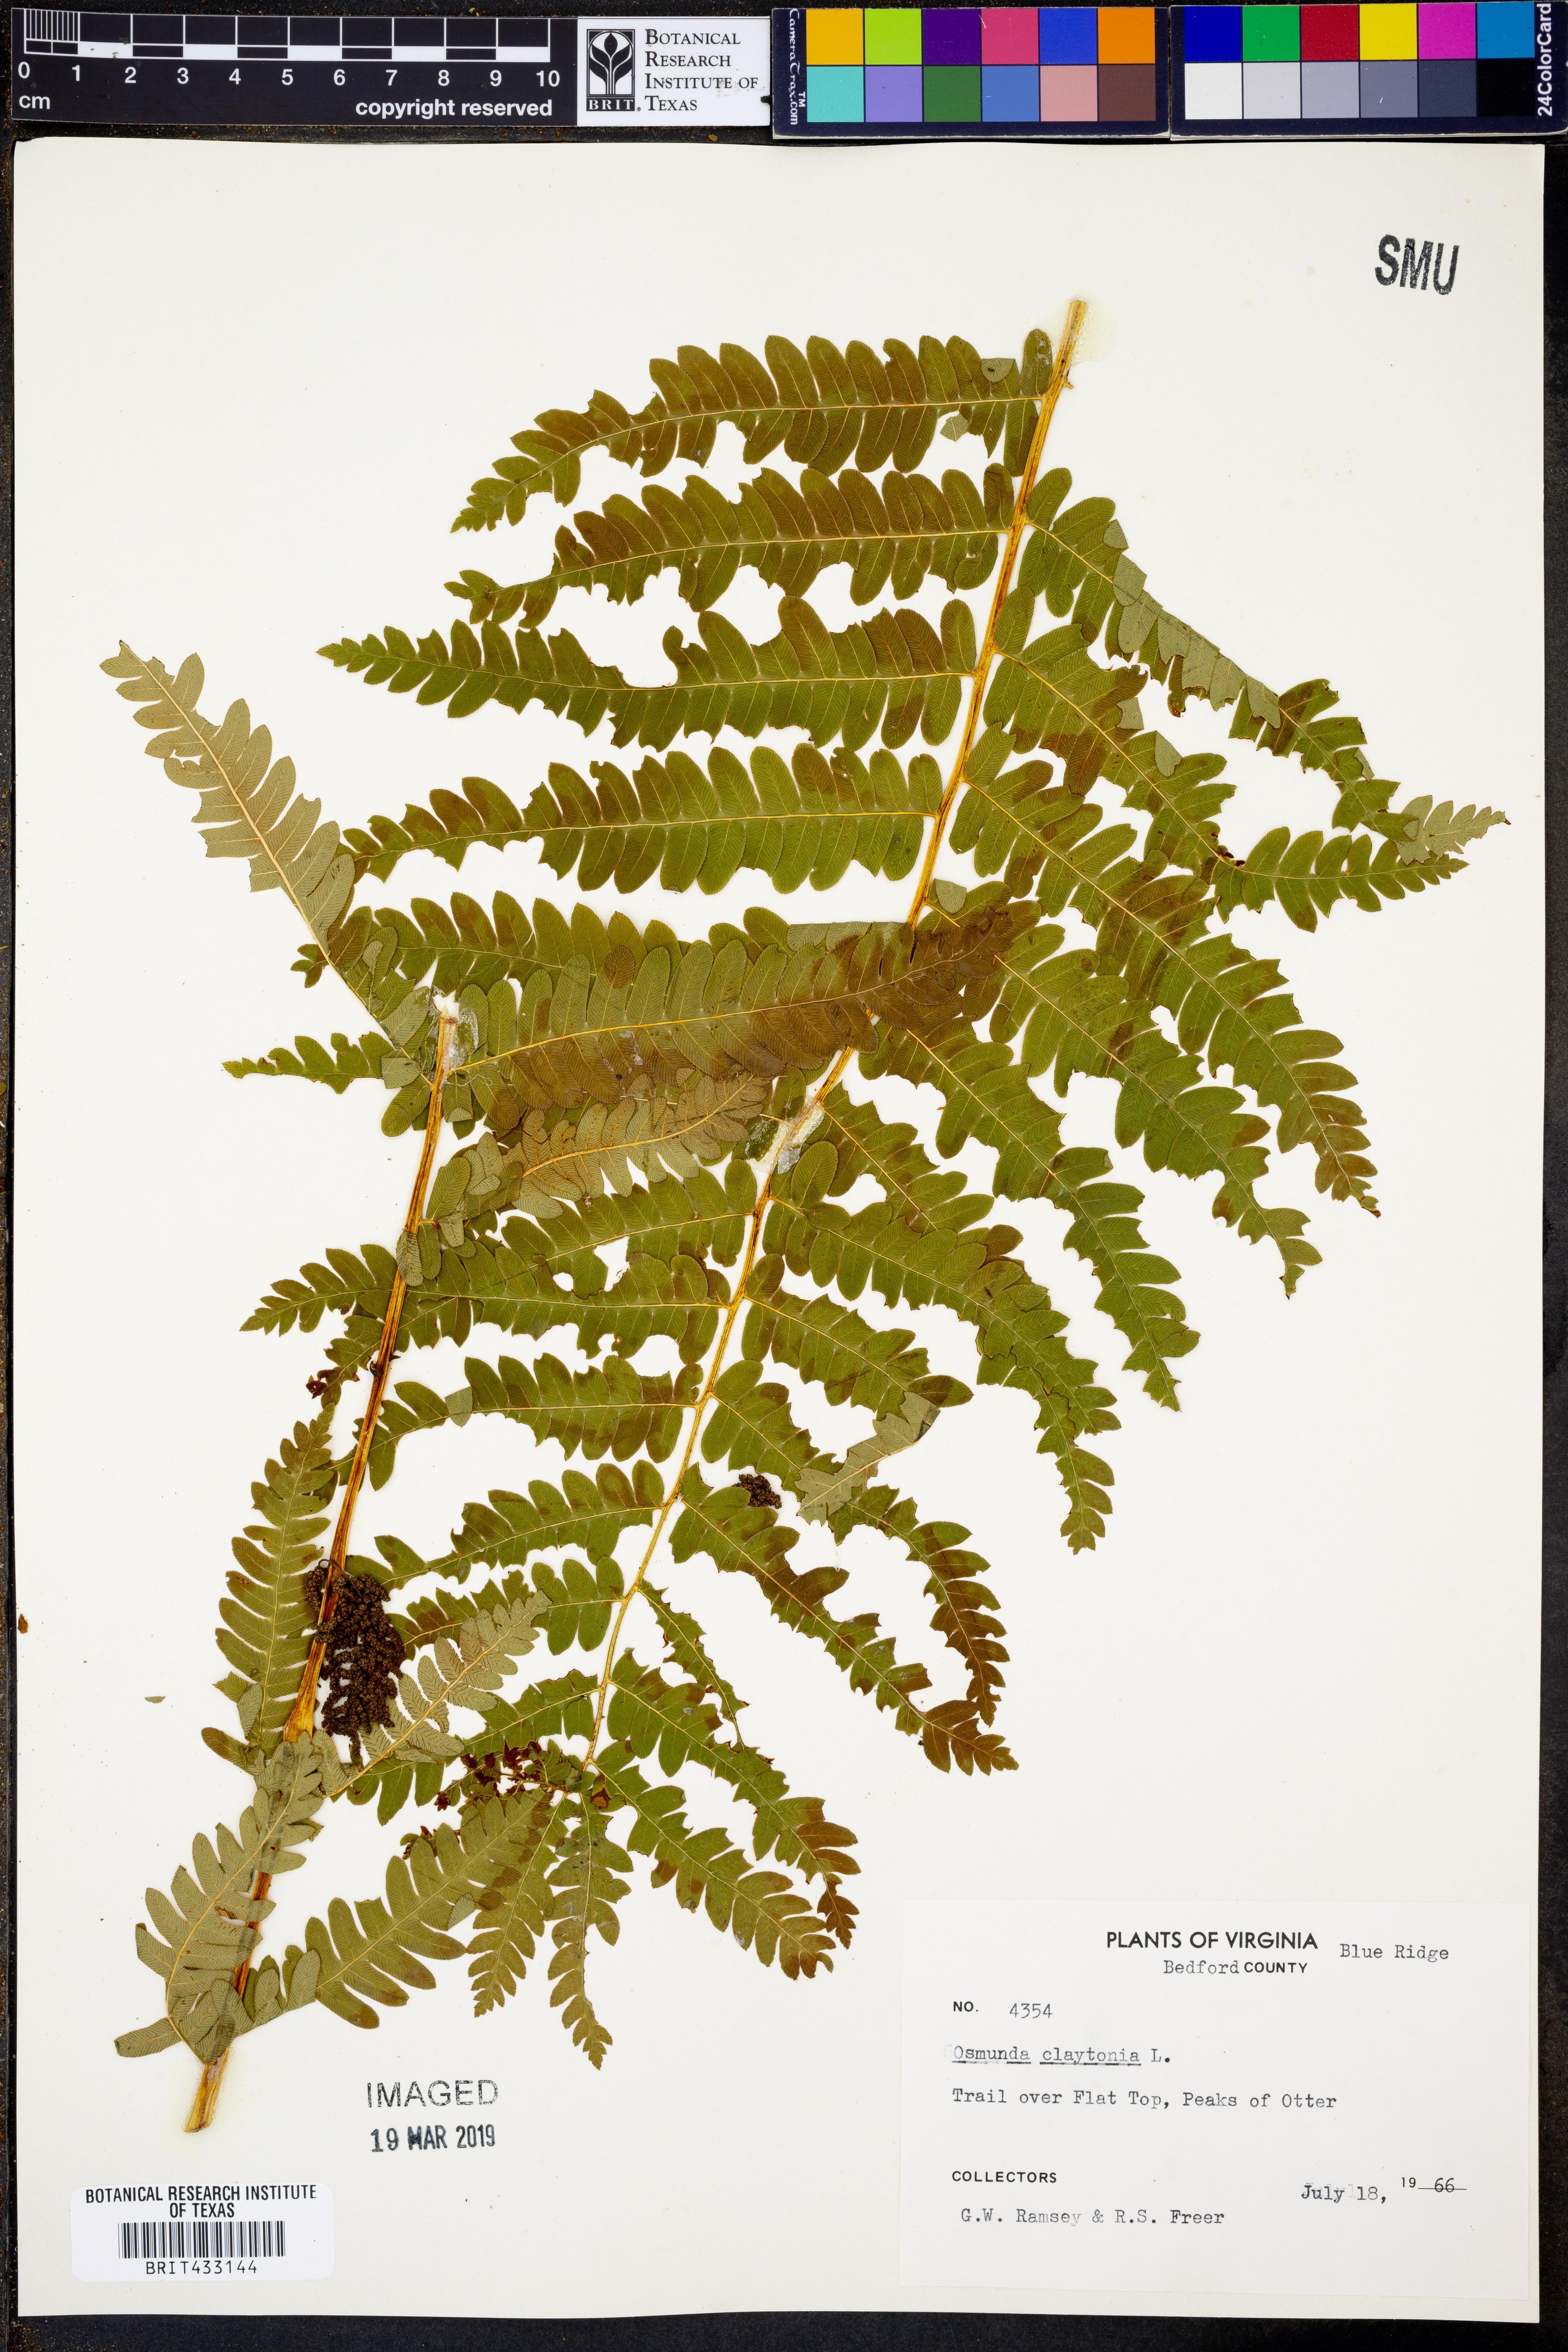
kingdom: Plantae
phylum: Tracheophyta
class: Polypodiopsida
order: Osmundales
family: Osmundaceae
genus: Claytosmunda
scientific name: Claytosmunda claytoniana
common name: Clayton's fern
